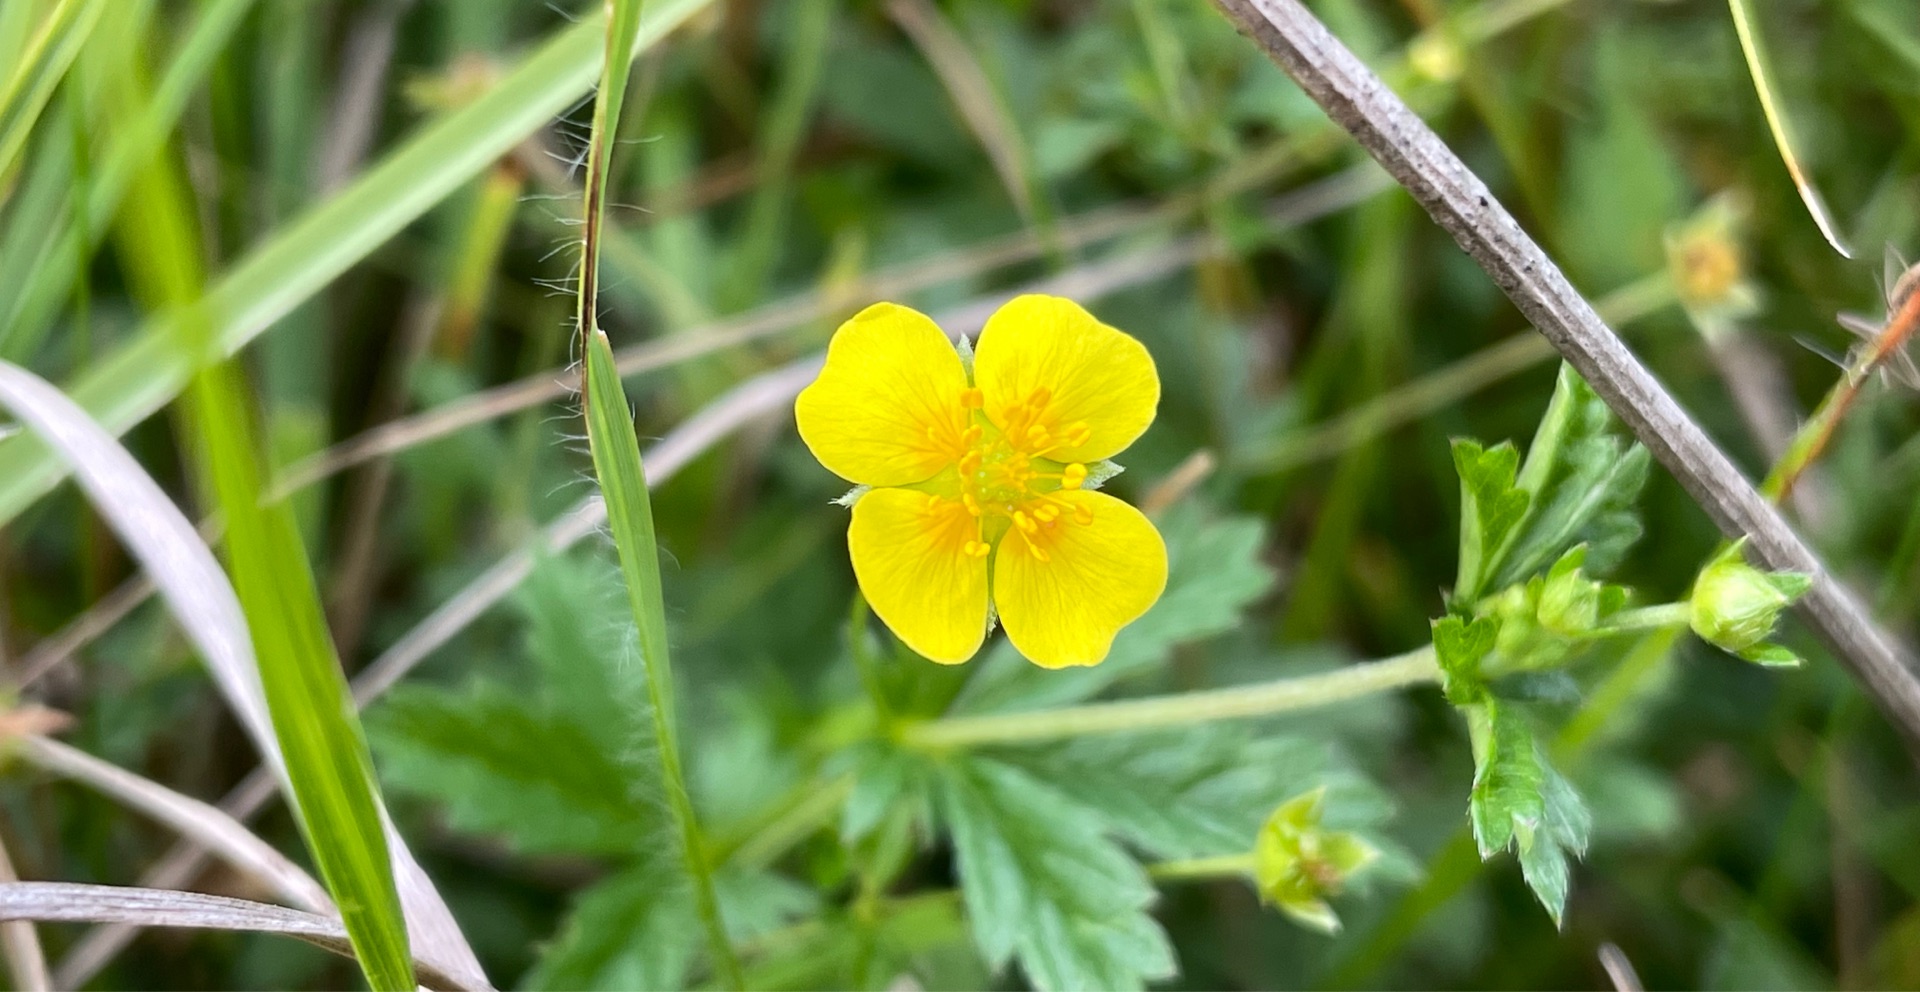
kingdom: Plantae
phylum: Tracheophyta
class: Magnoliopsida
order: Rosales
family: Rosaceae
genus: Potentilla
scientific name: Potentilla erecta
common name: Tormentil
